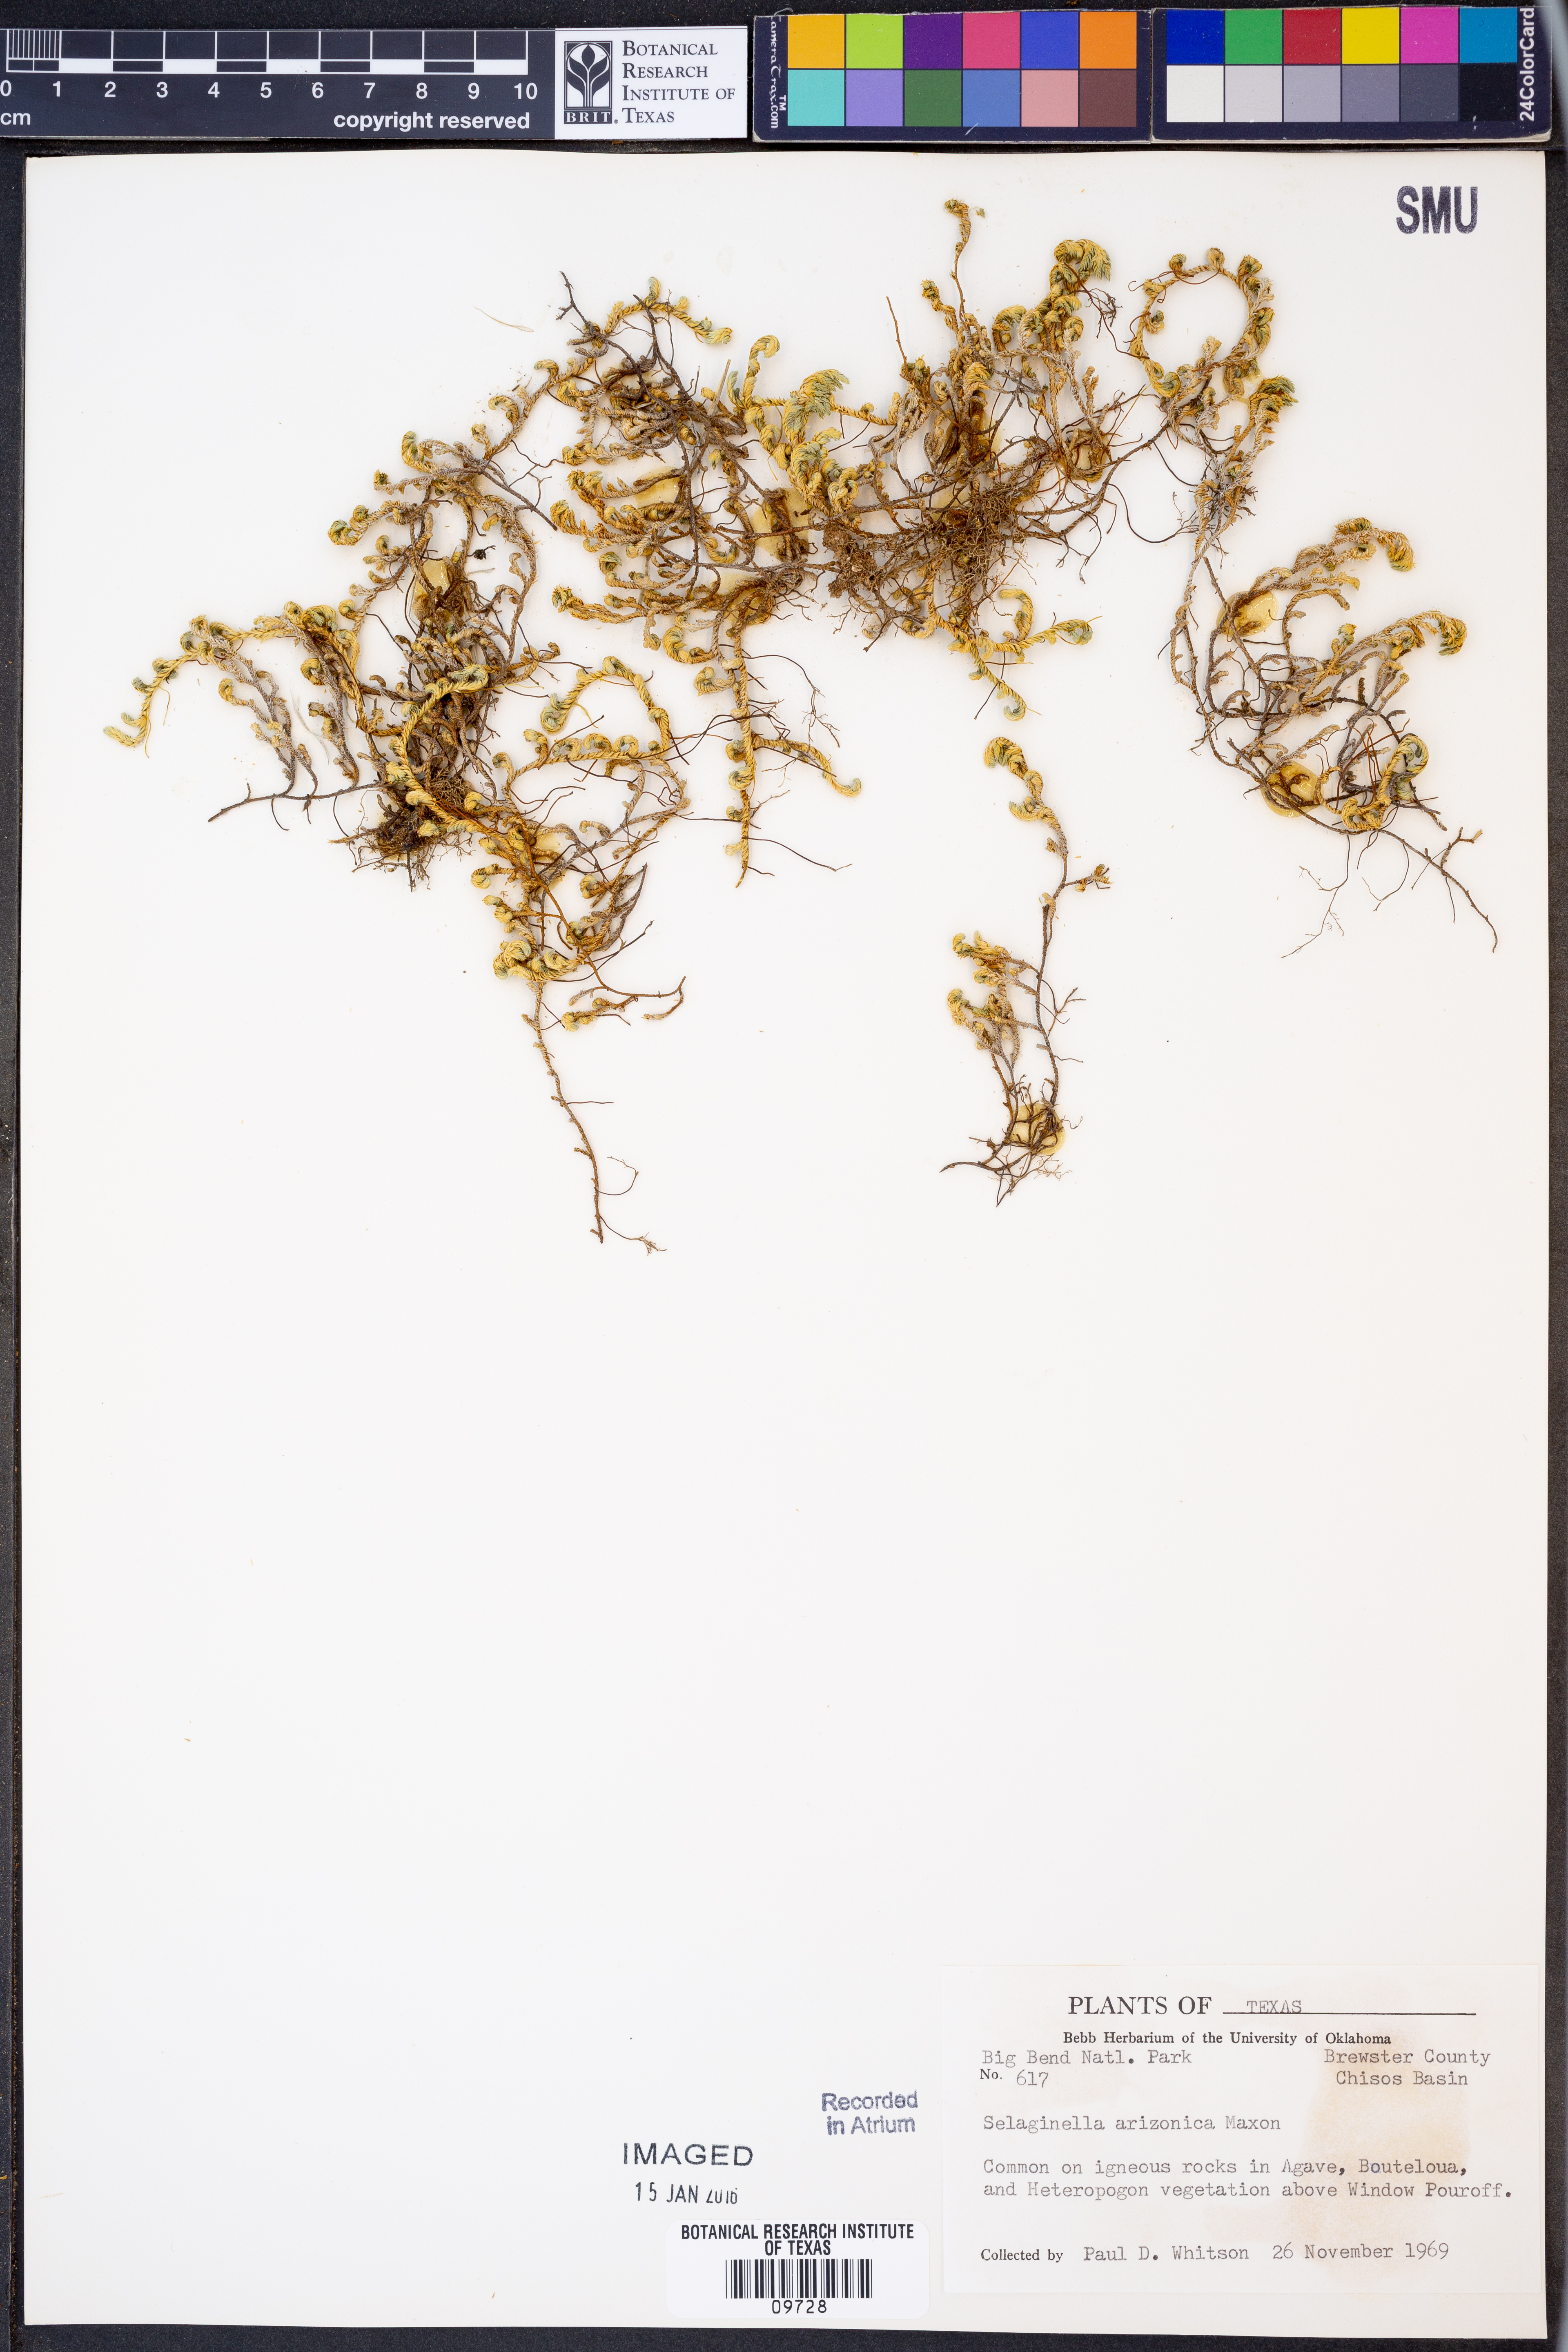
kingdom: Plantae
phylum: Tracheophyta
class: Lycopodiopsida
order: Selaginellales
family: Selaginellaceae
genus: Selaginella
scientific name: Selaginella arizonica
